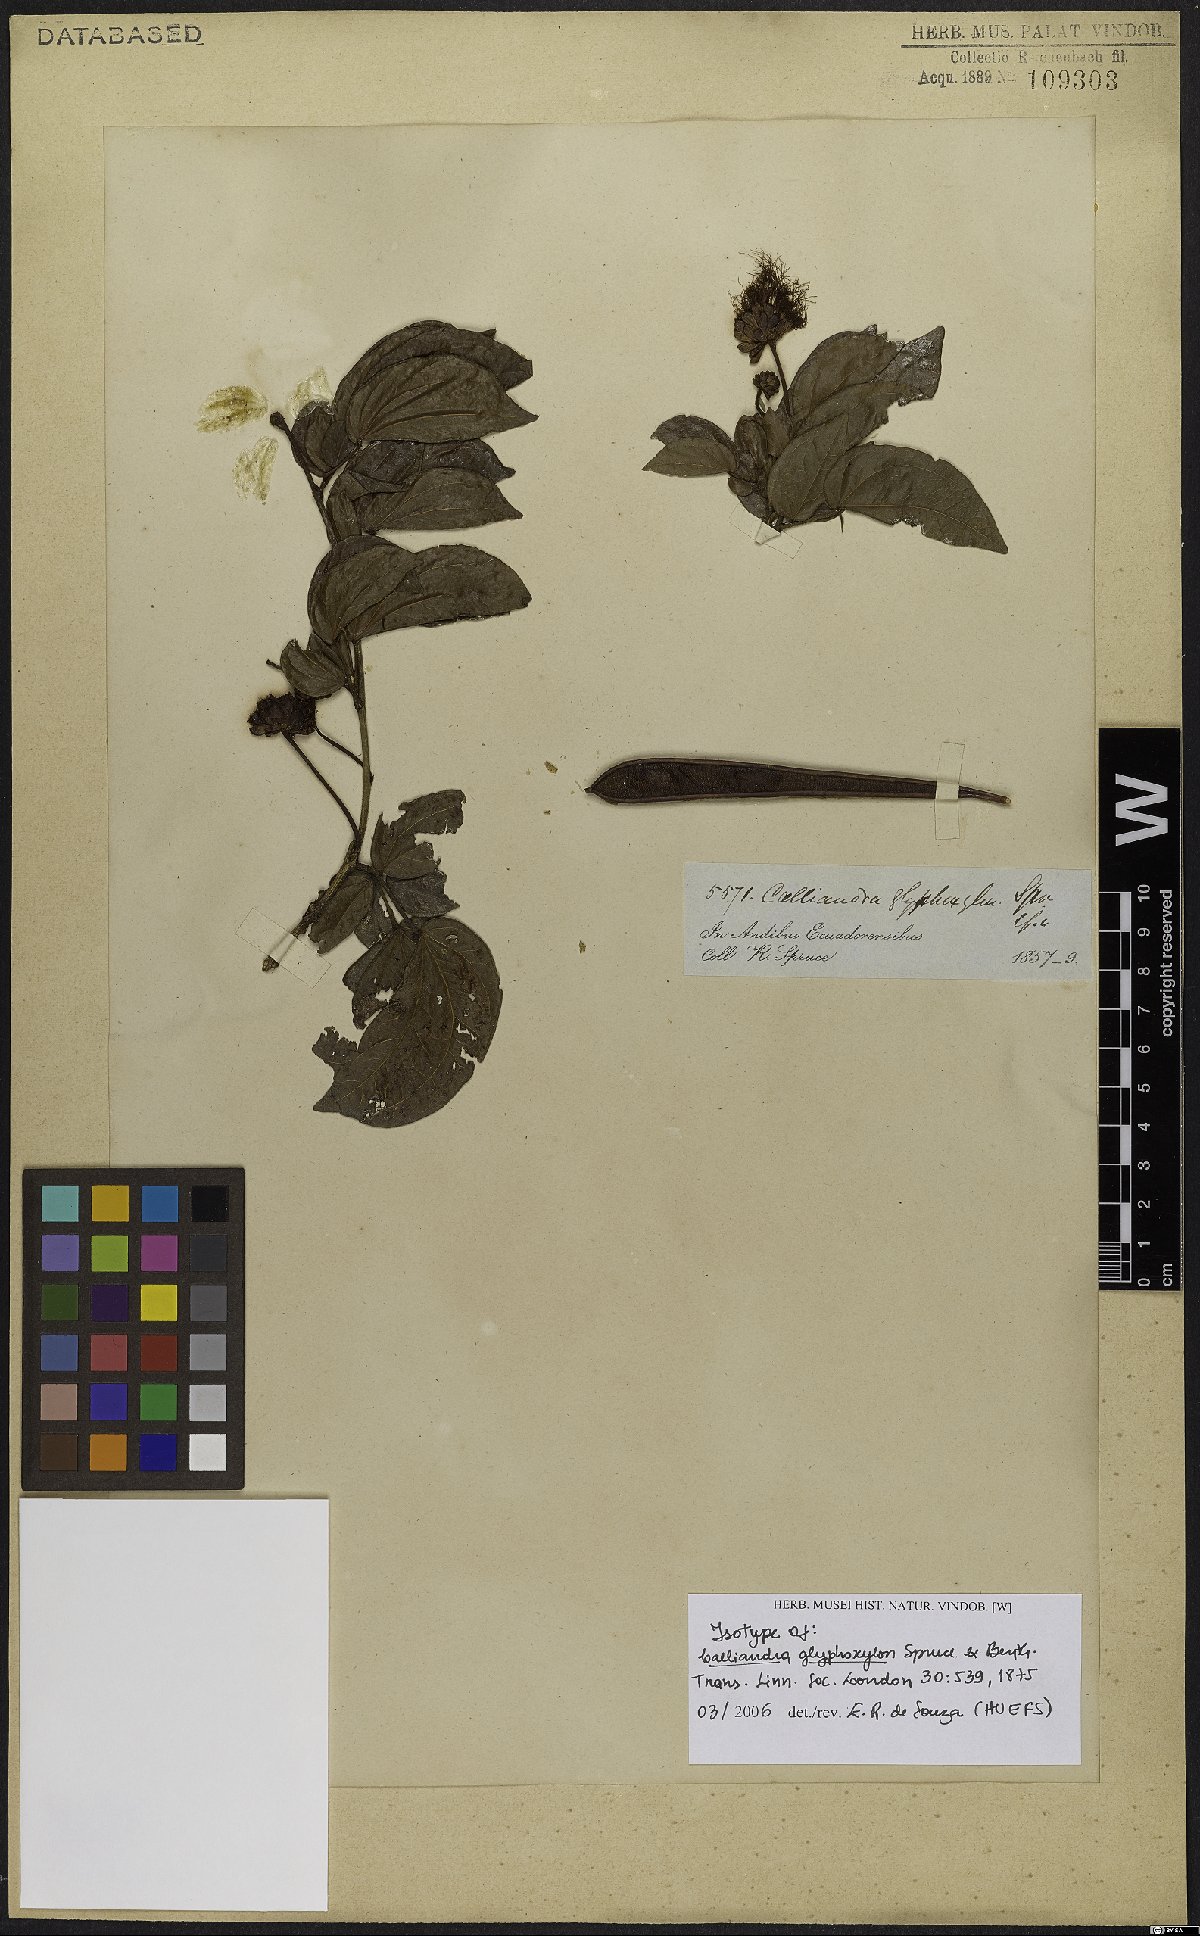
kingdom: Plantae
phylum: Tracheophyta
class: Magnoliopsida
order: Fabales
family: Fabaceae
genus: Calliandra
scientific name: Calliandra glyphoxylon
